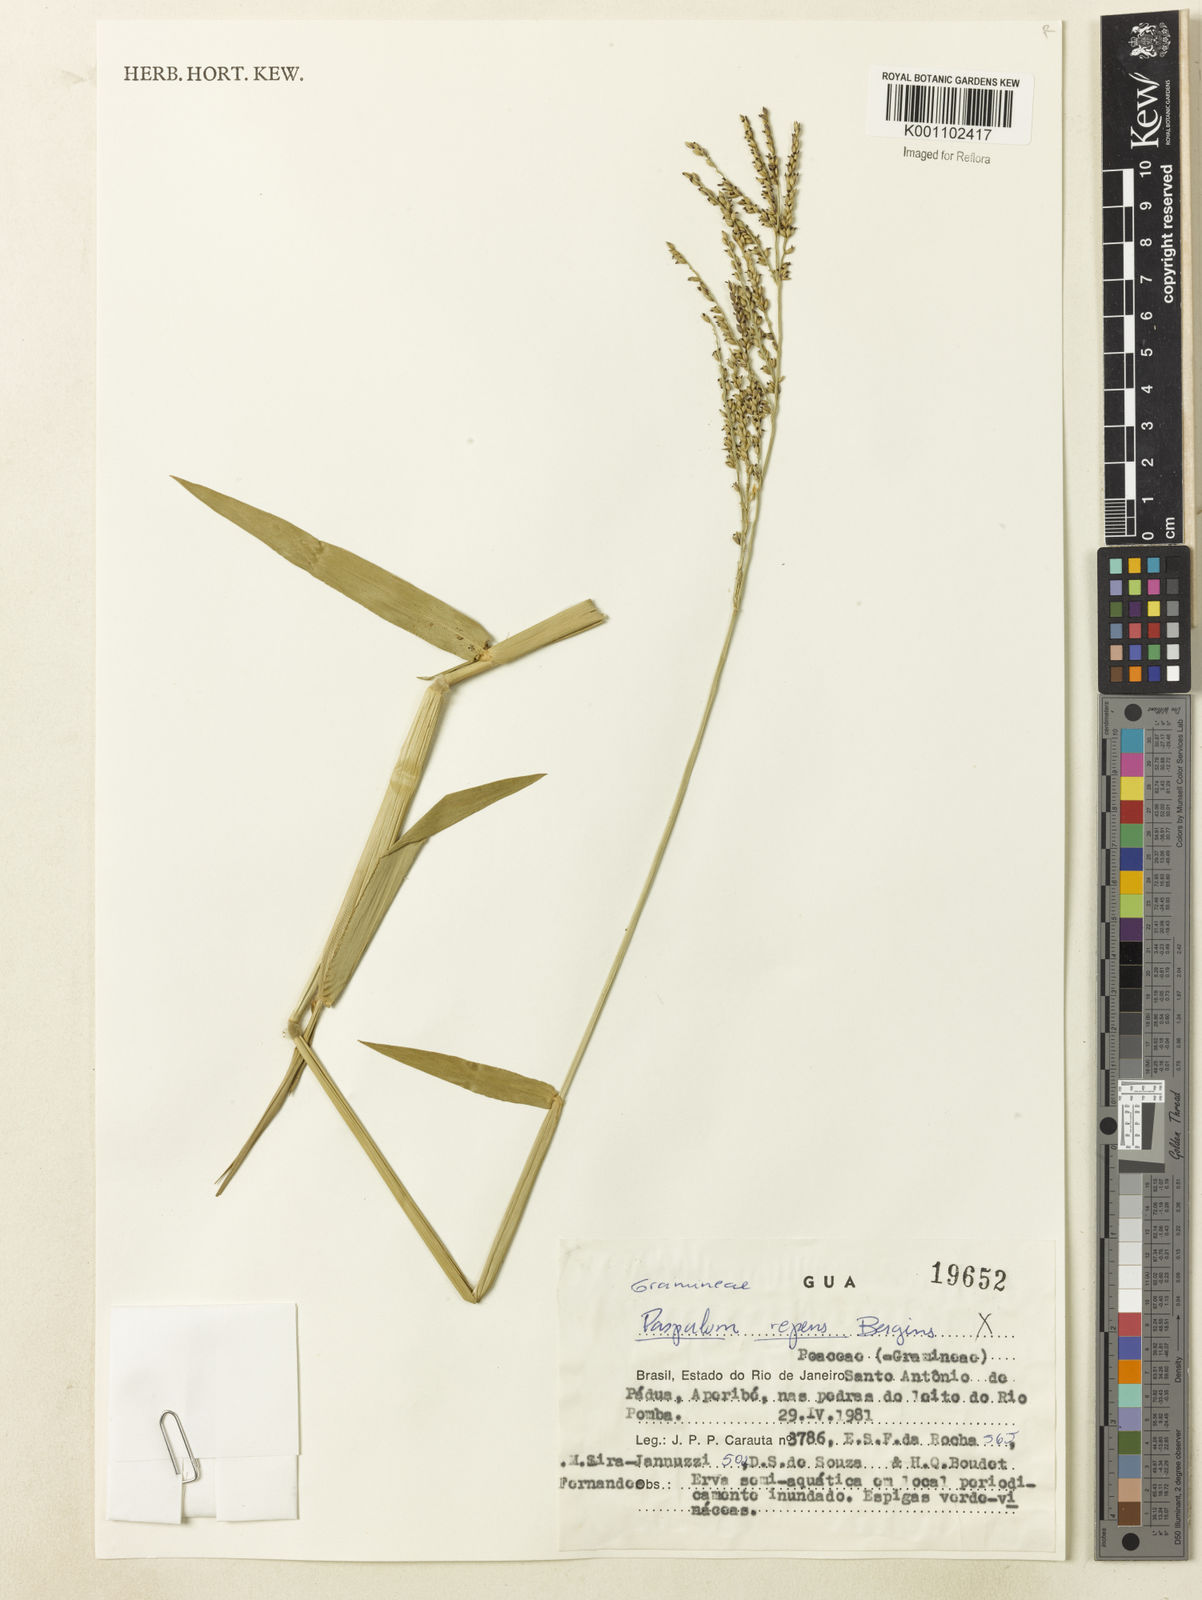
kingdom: Plantae
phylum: Tracheophyta
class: Liliopsida
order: Poales
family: Poaceae
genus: Urochloa
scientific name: Urochloa mutica
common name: Para grass
